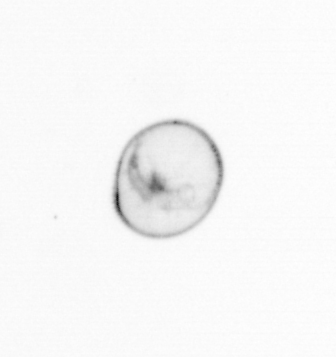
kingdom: Chromista
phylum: Myzozoa
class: Dinophyceae
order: Noctilucales
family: Noctilucaceae
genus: Noctiluca
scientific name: Noctiluca scintillans
